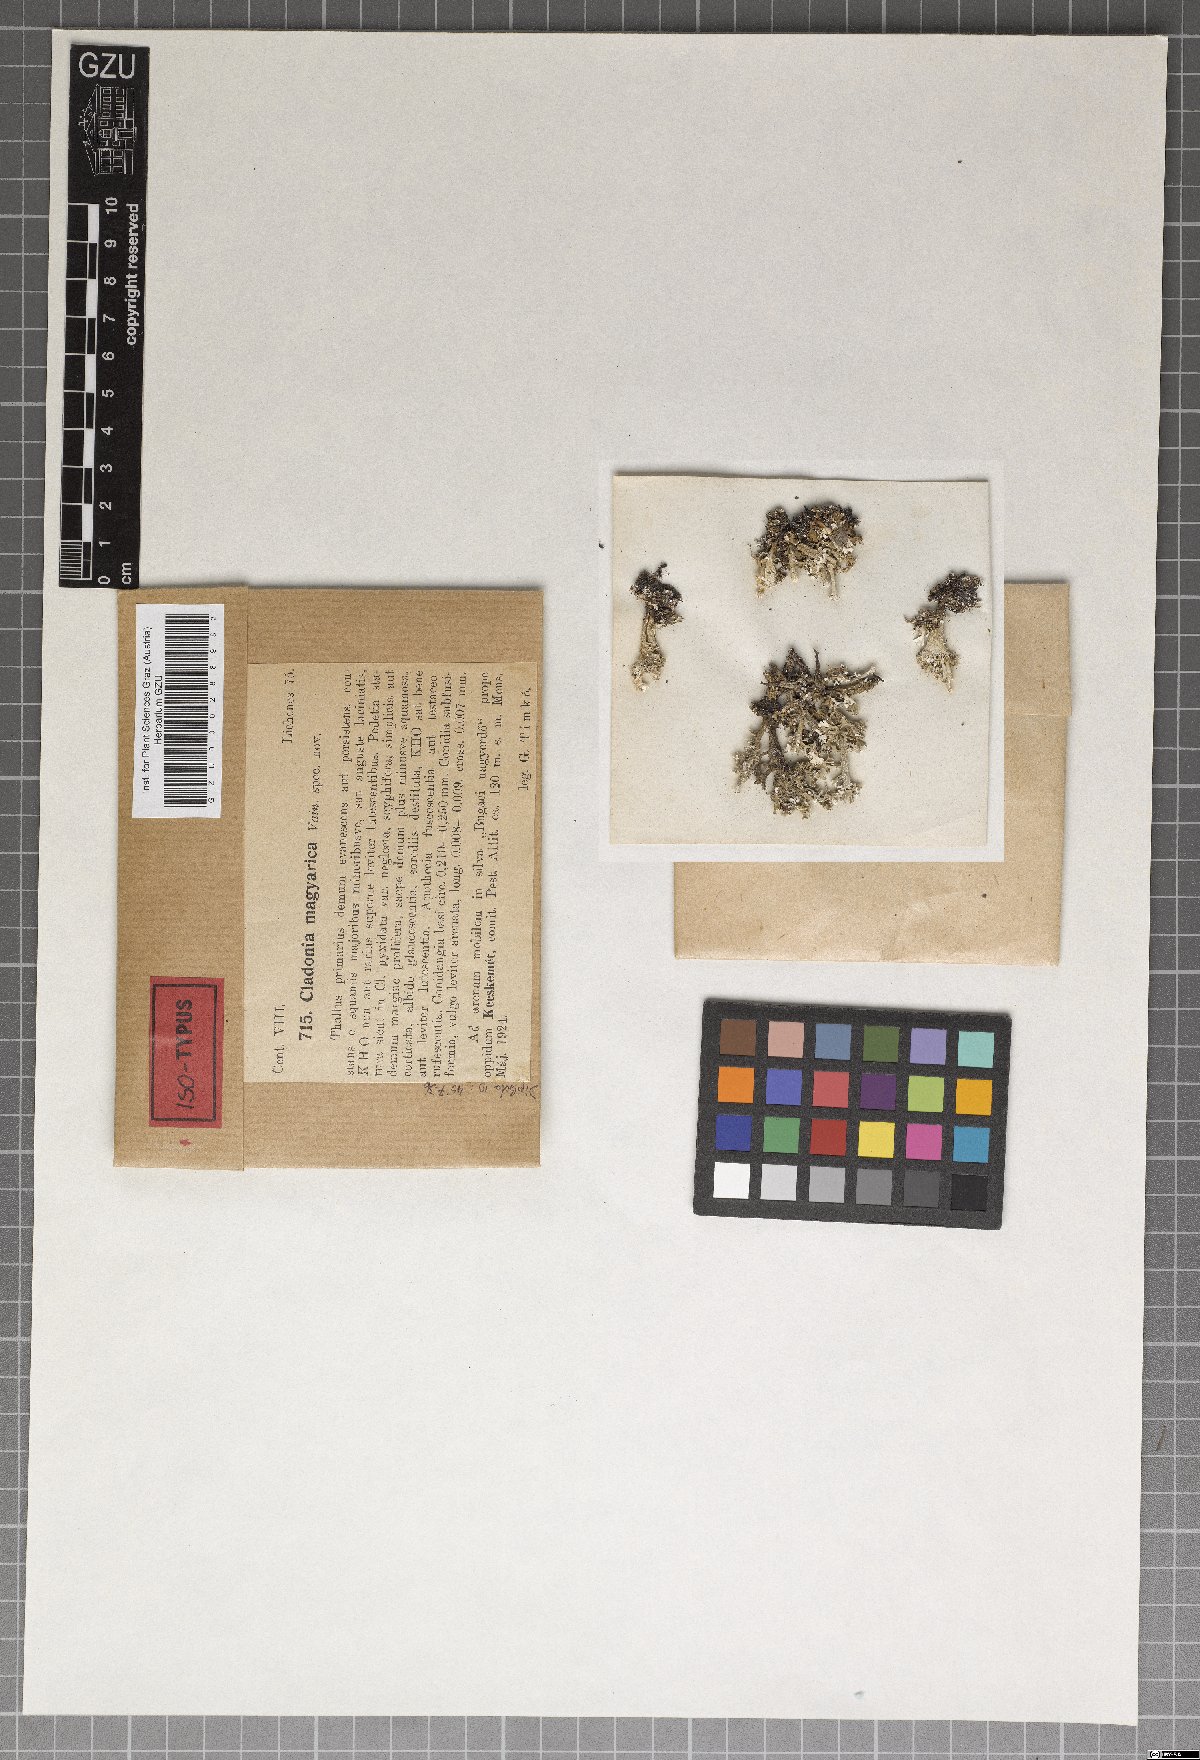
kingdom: Plantae
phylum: Marchantiophyta
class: Marchantiopsida
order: Marchantiales
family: Monocleaceae
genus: Monoclea
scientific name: Monoclea
